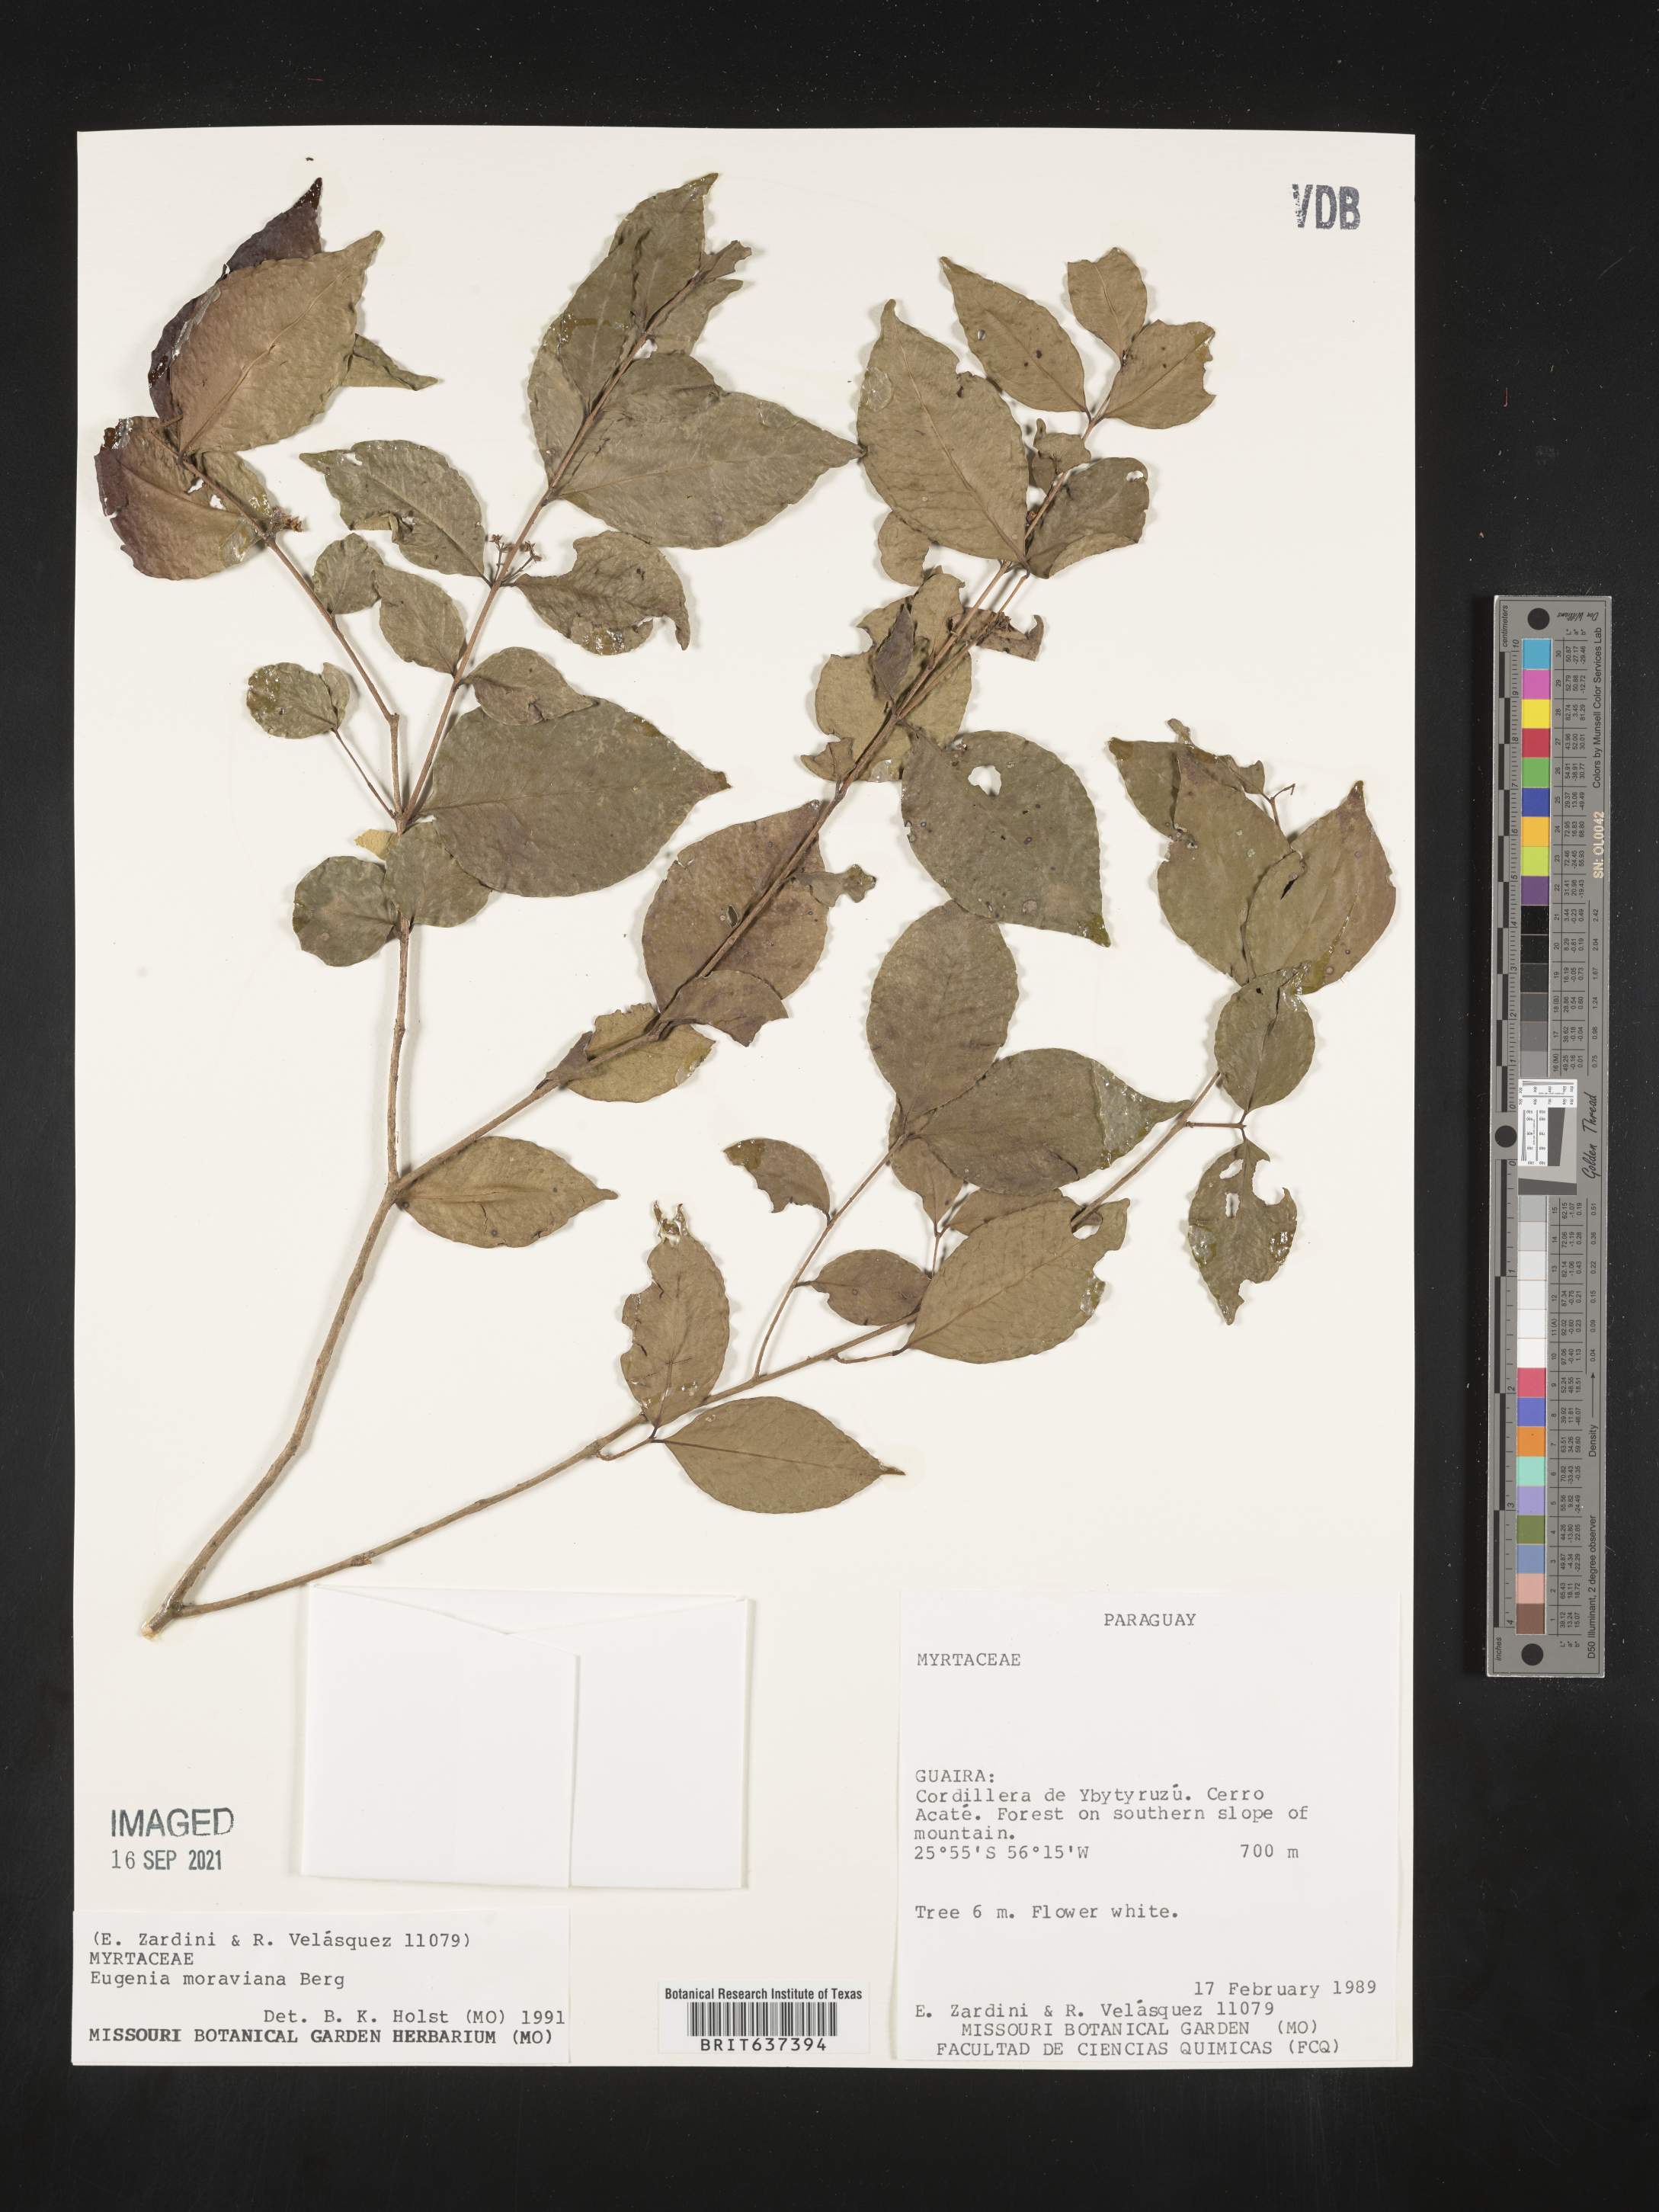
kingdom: Plantae
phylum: Tracheophyta
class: Magnoliopsida
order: Myrtales
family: Myrtaceae
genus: Eugenia
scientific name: Eugenia
